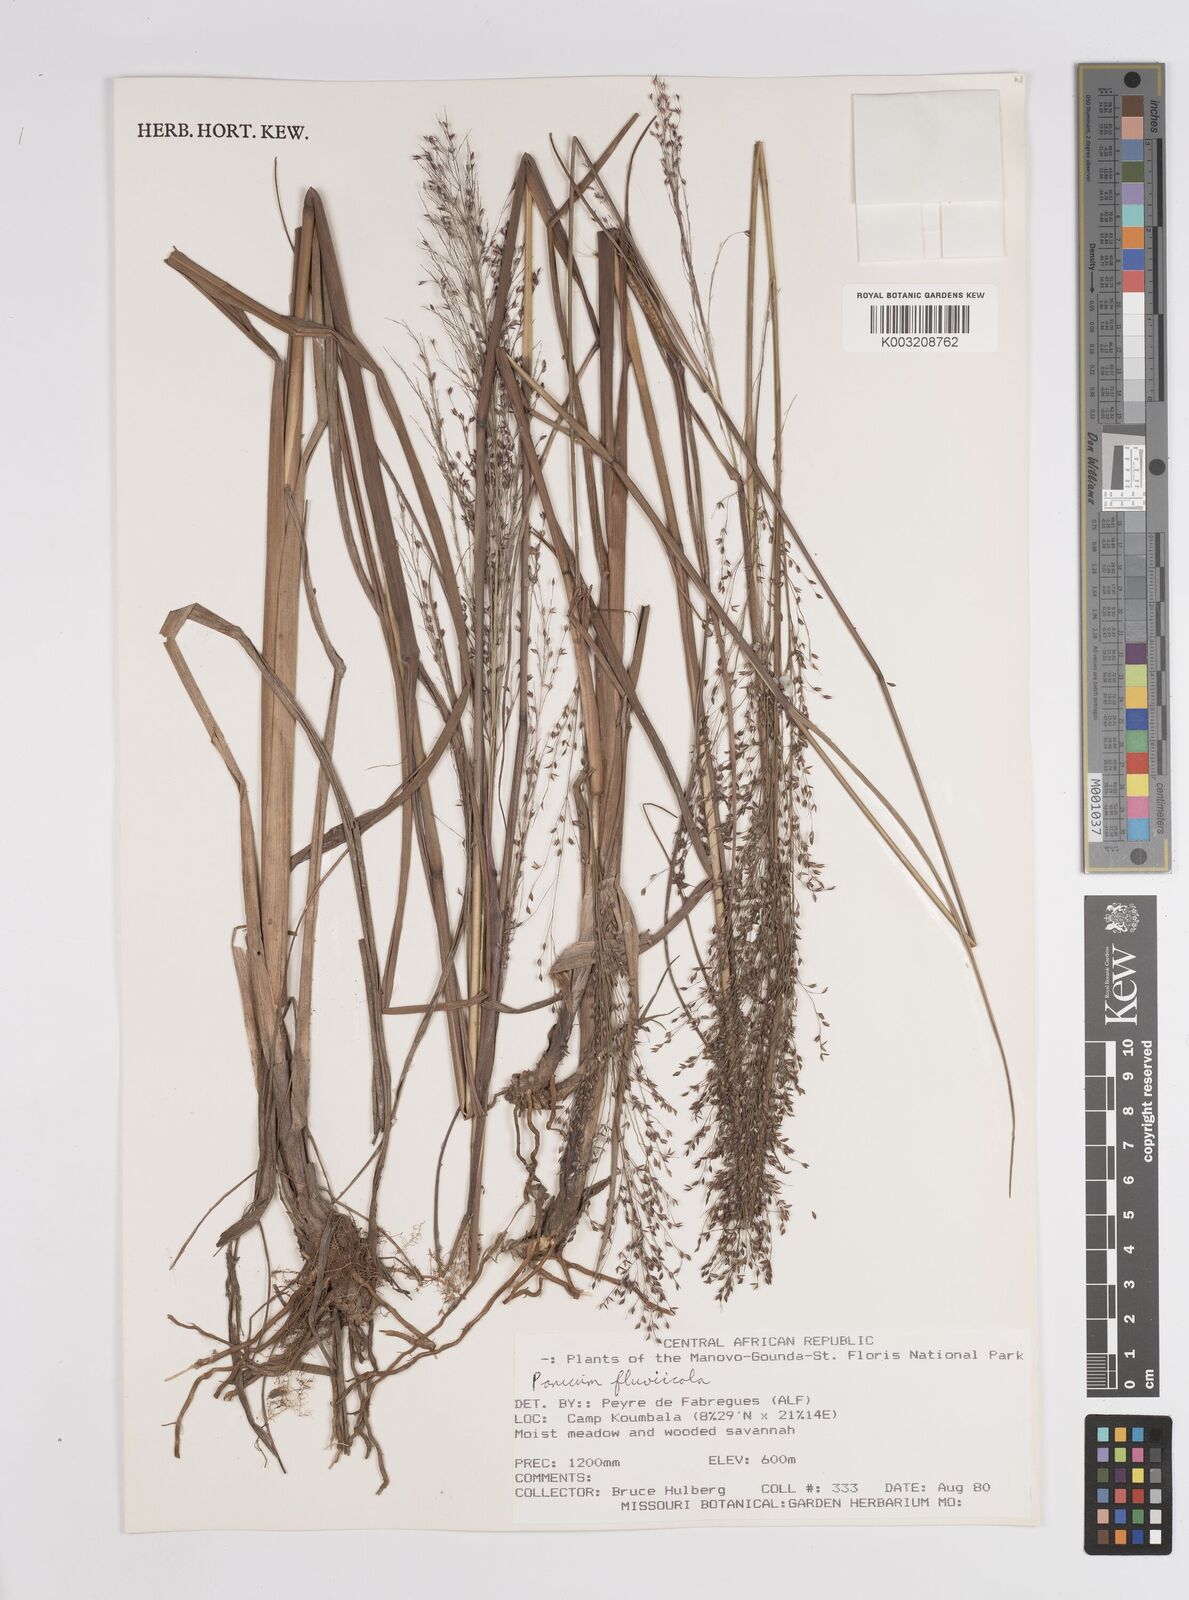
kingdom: Plantae
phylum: Tracheophyta
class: Liliopsida
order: Poales
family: Poaceae
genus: Panicum
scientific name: Panicum fluviicola
